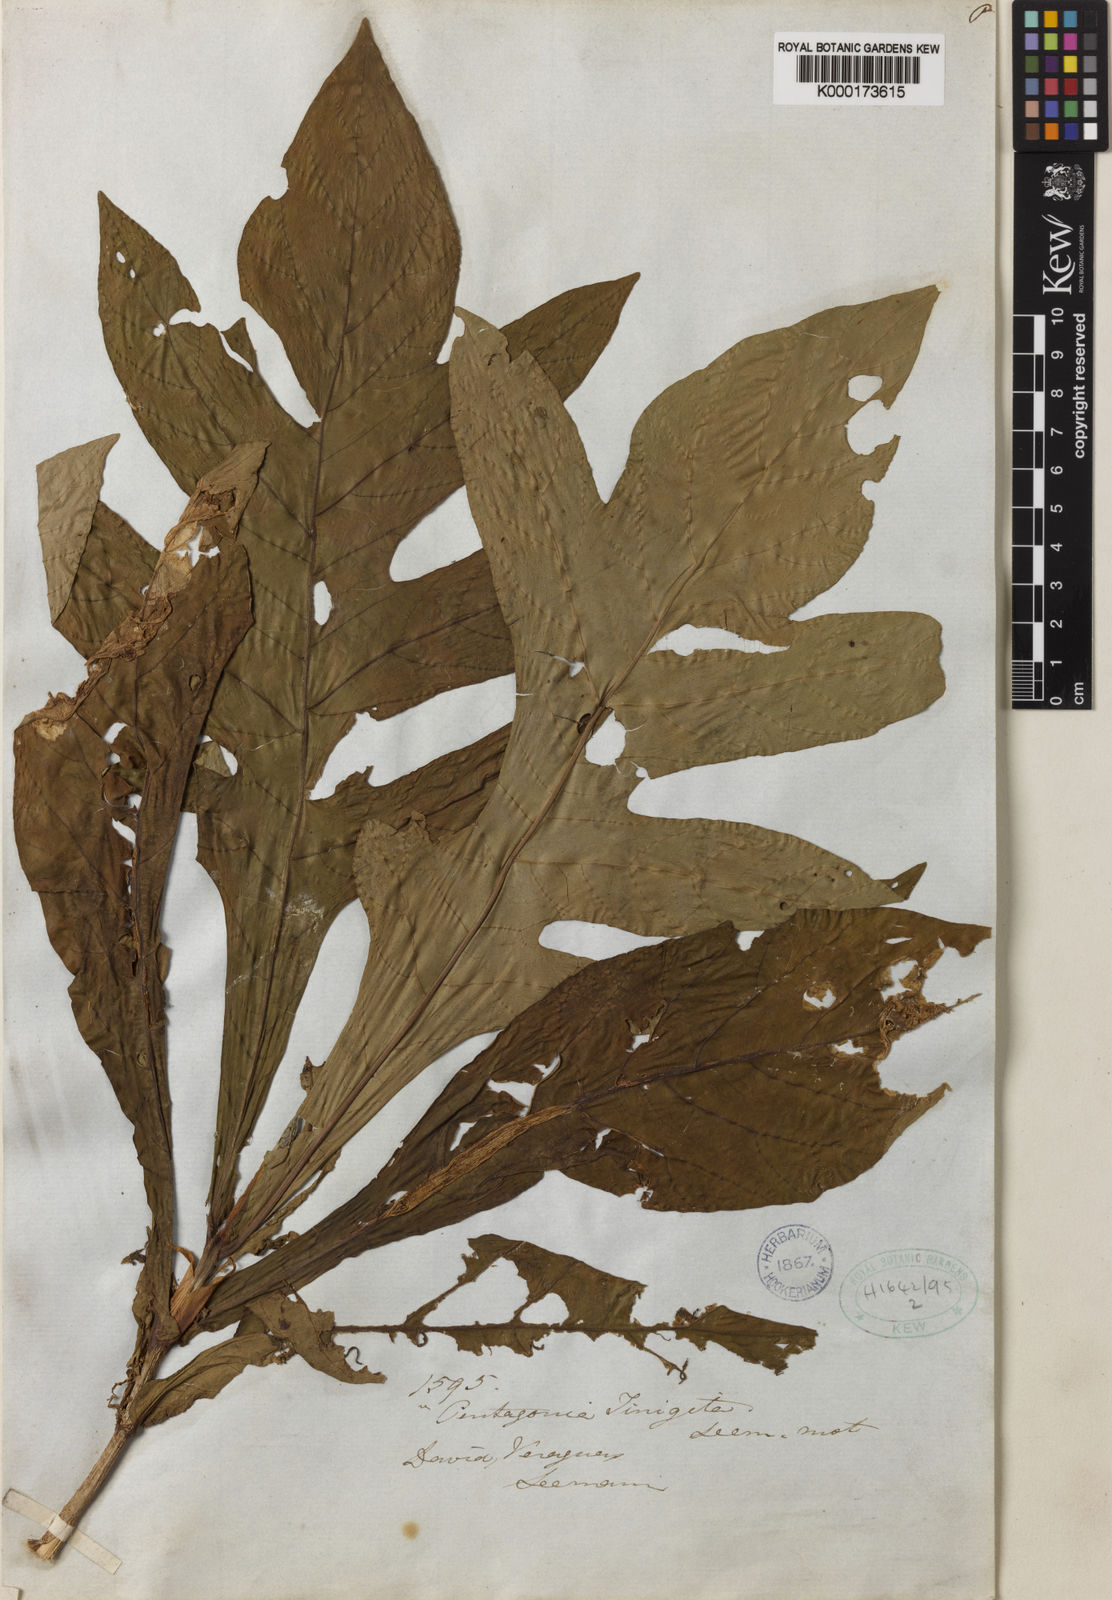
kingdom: Plantae
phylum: Tracheophyta
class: Magnoliopsida
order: Gentianales
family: Rubiaceae
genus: Pentagonia
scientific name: Pentagonia tinajita
